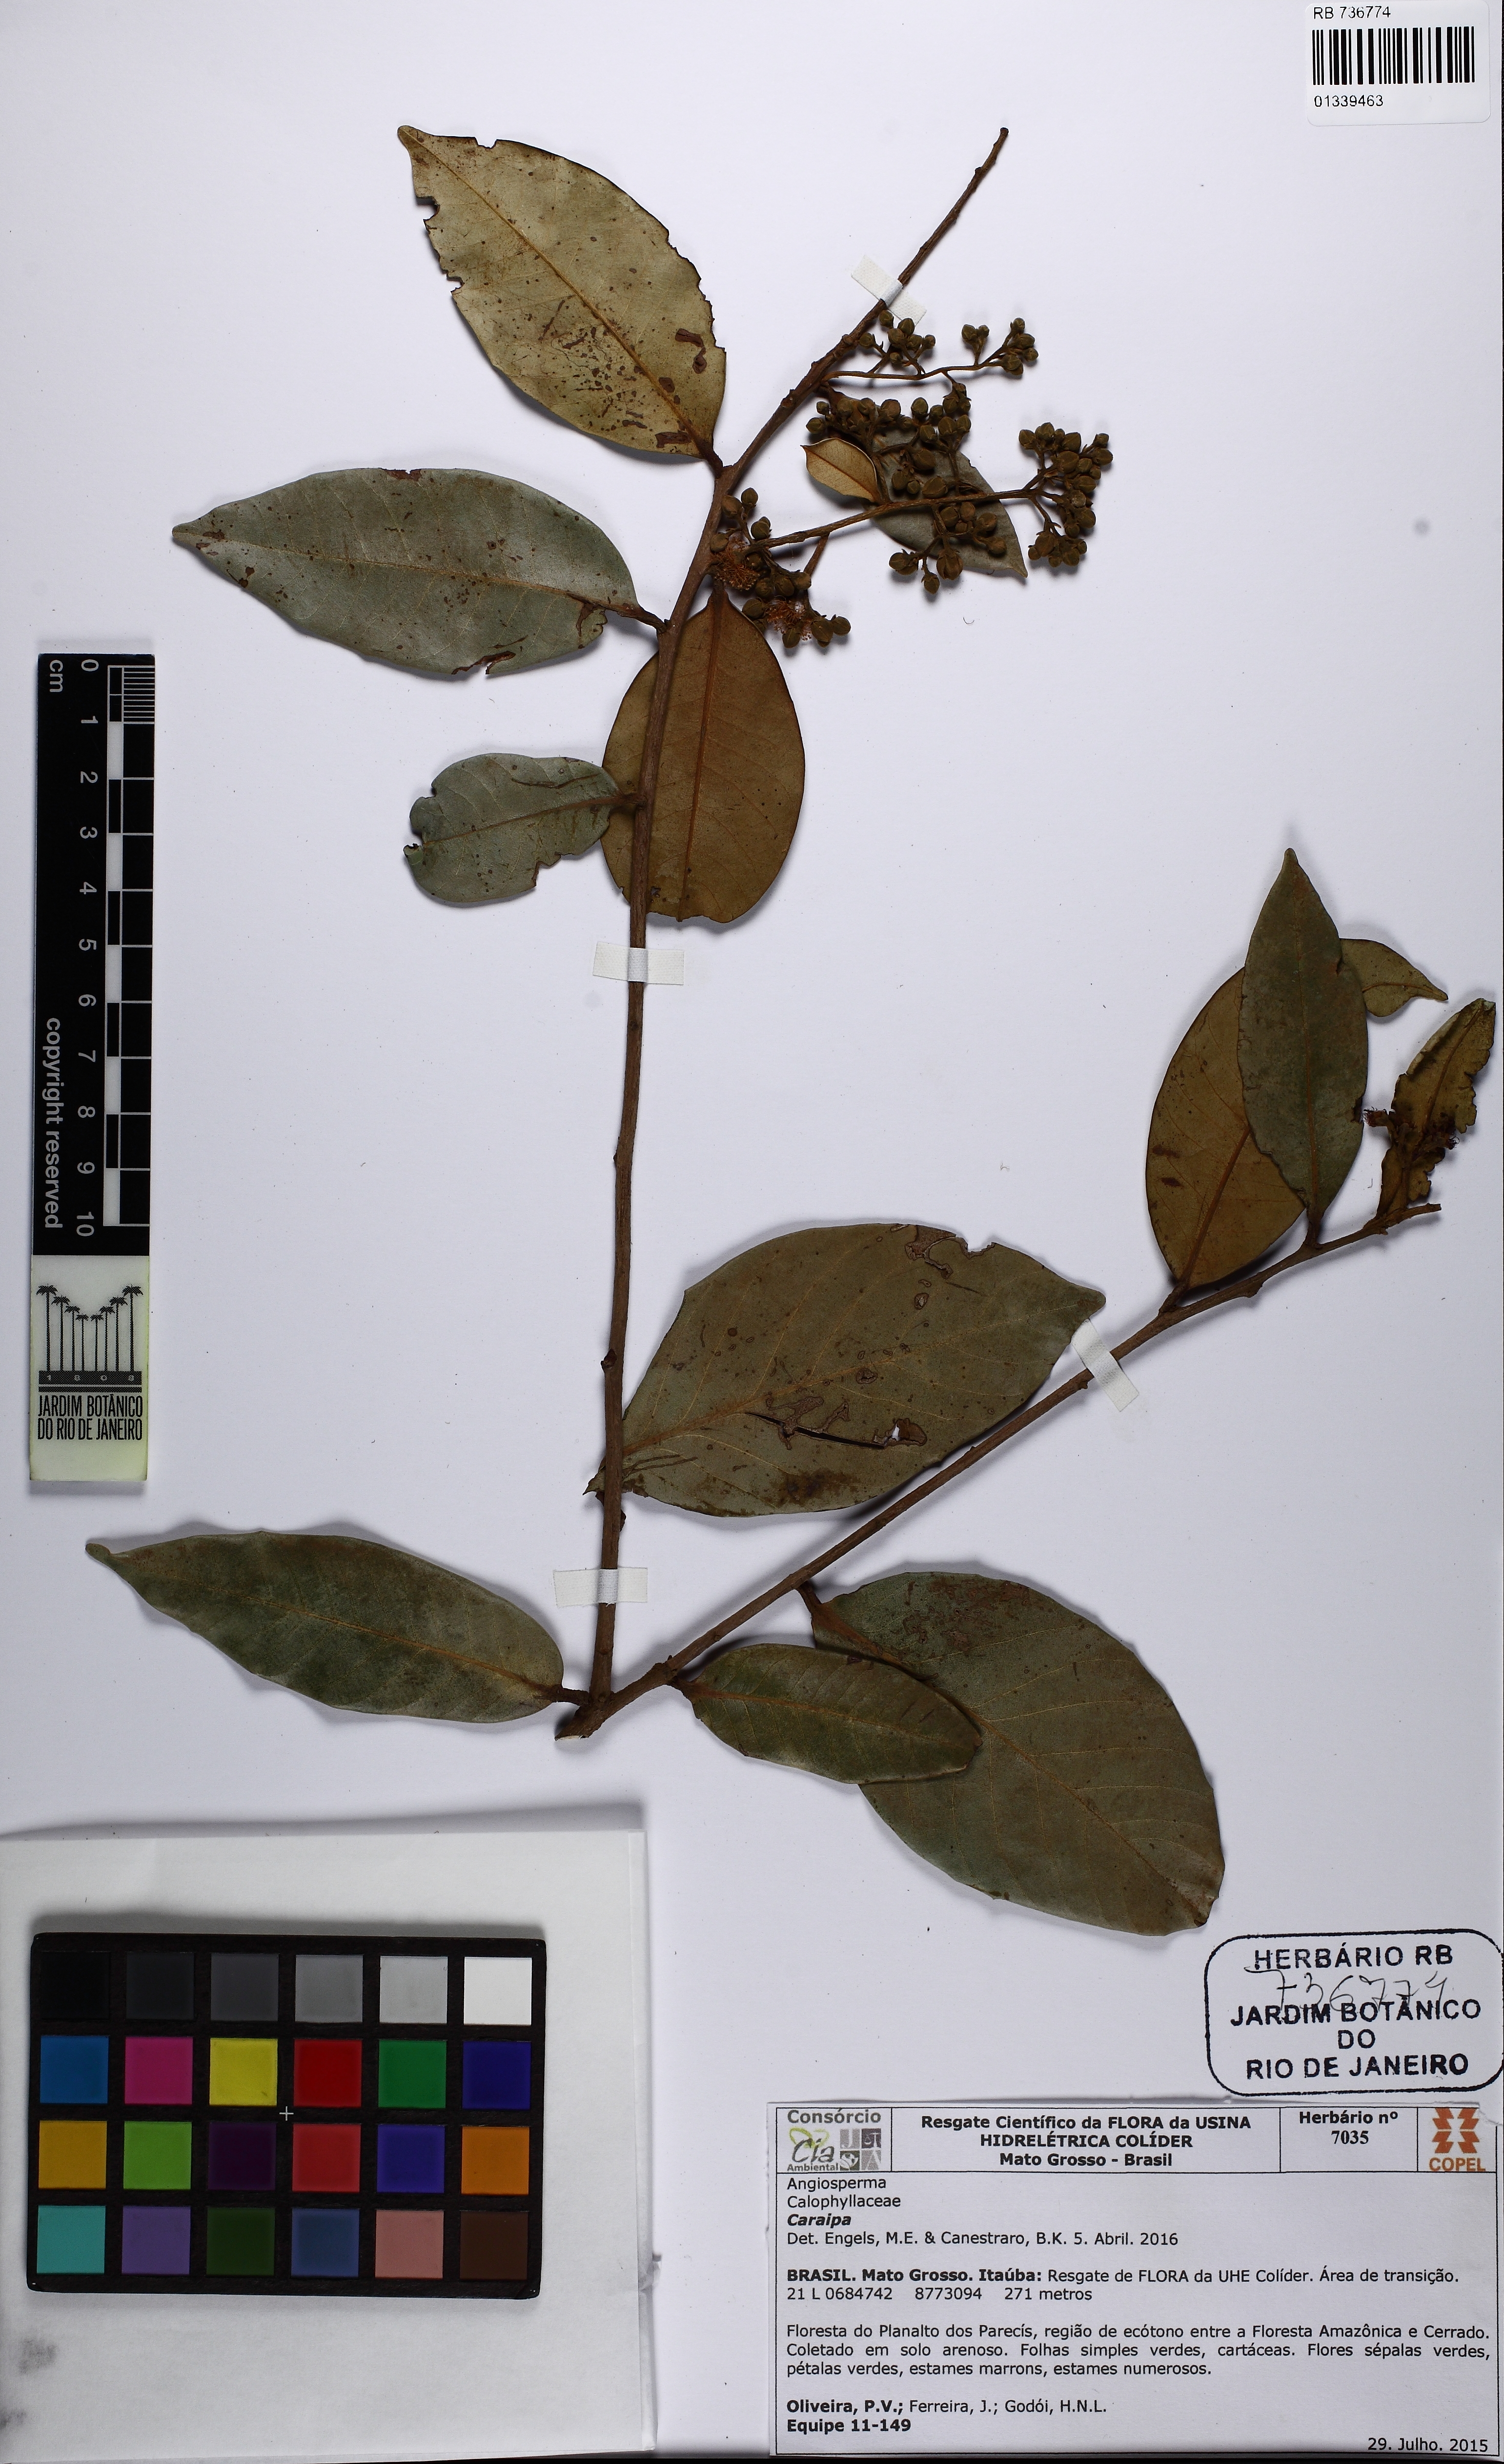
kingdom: Plantae
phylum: Tracheophyta
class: Magnoliopsida
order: Malpighiales
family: Calophyllaceae
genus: Caraipa
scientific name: Caraipa
